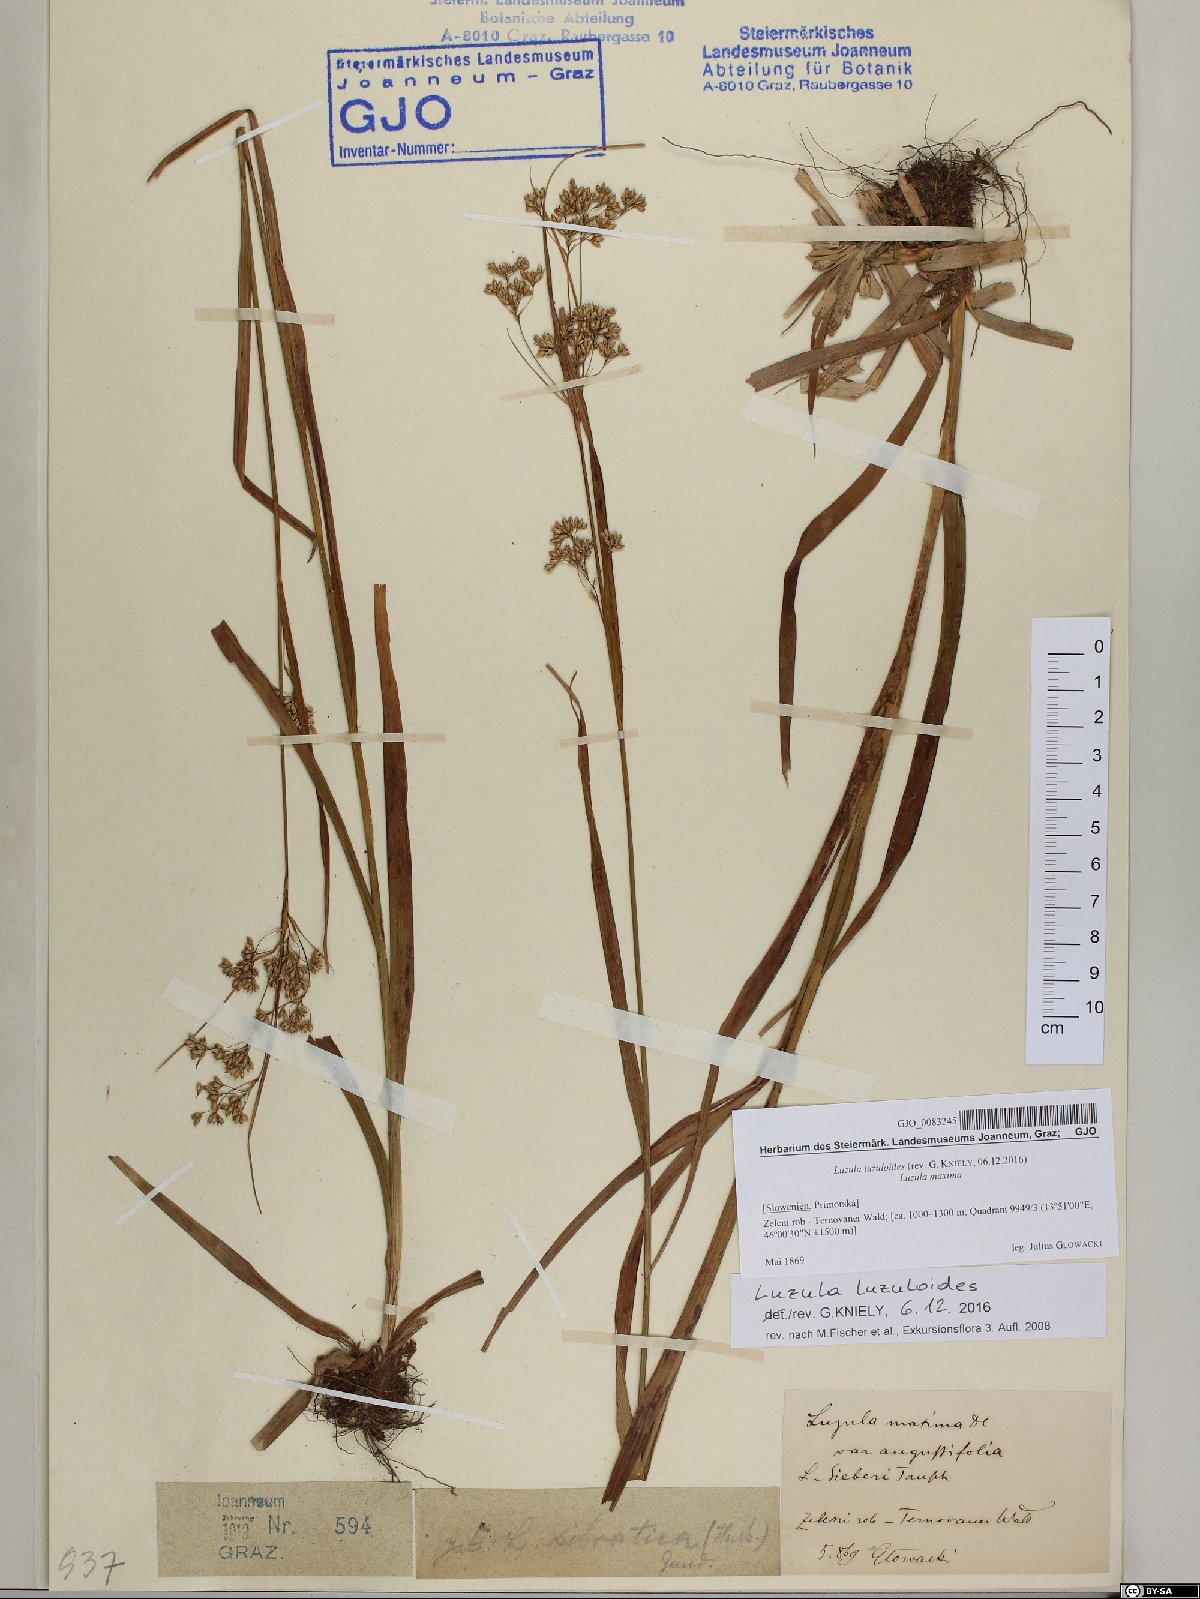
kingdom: Plantae
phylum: Tracheophyta
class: Liliopsida
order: Poales
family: Juncaceae
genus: Luzula
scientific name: Luzula luzuloides
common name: White wood-rush
